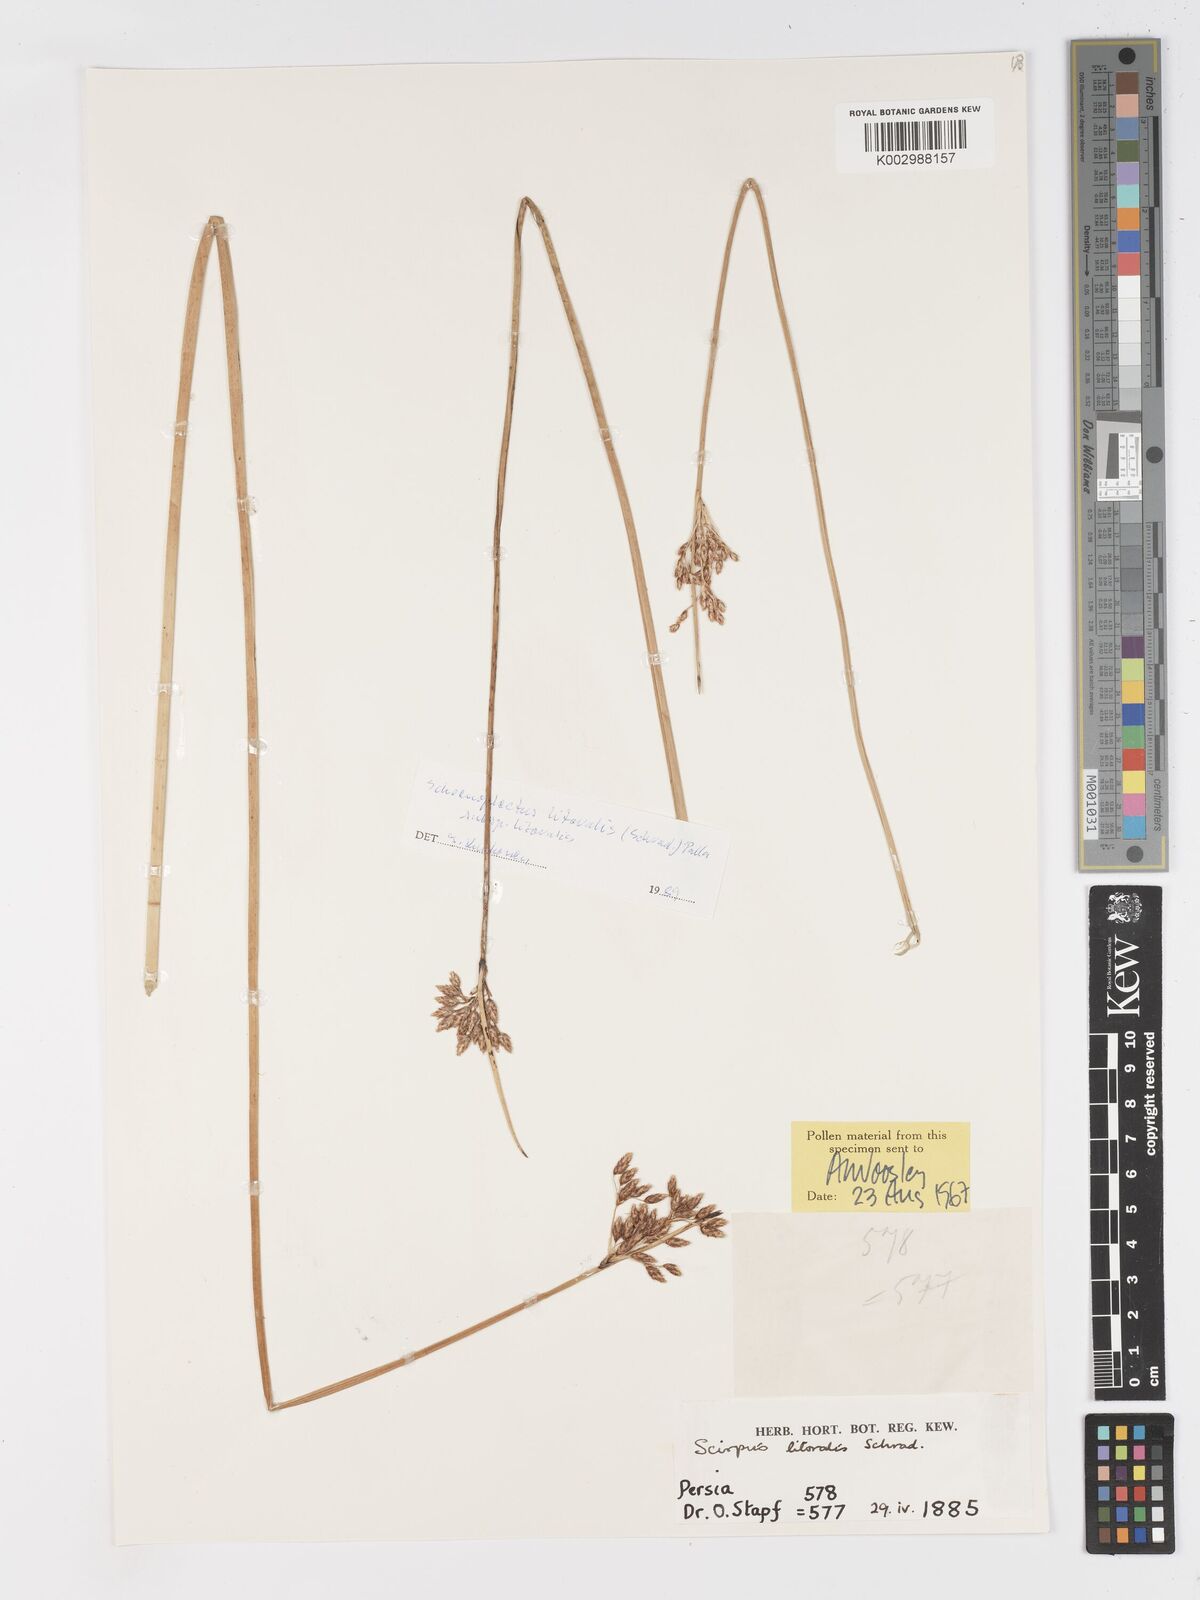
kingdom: Plantae
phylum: Tracheophyta
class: Liliopsida
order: Poales
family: Cyperaceae
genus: Schoenoplectus
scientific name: Schoenoplectus litoralis
